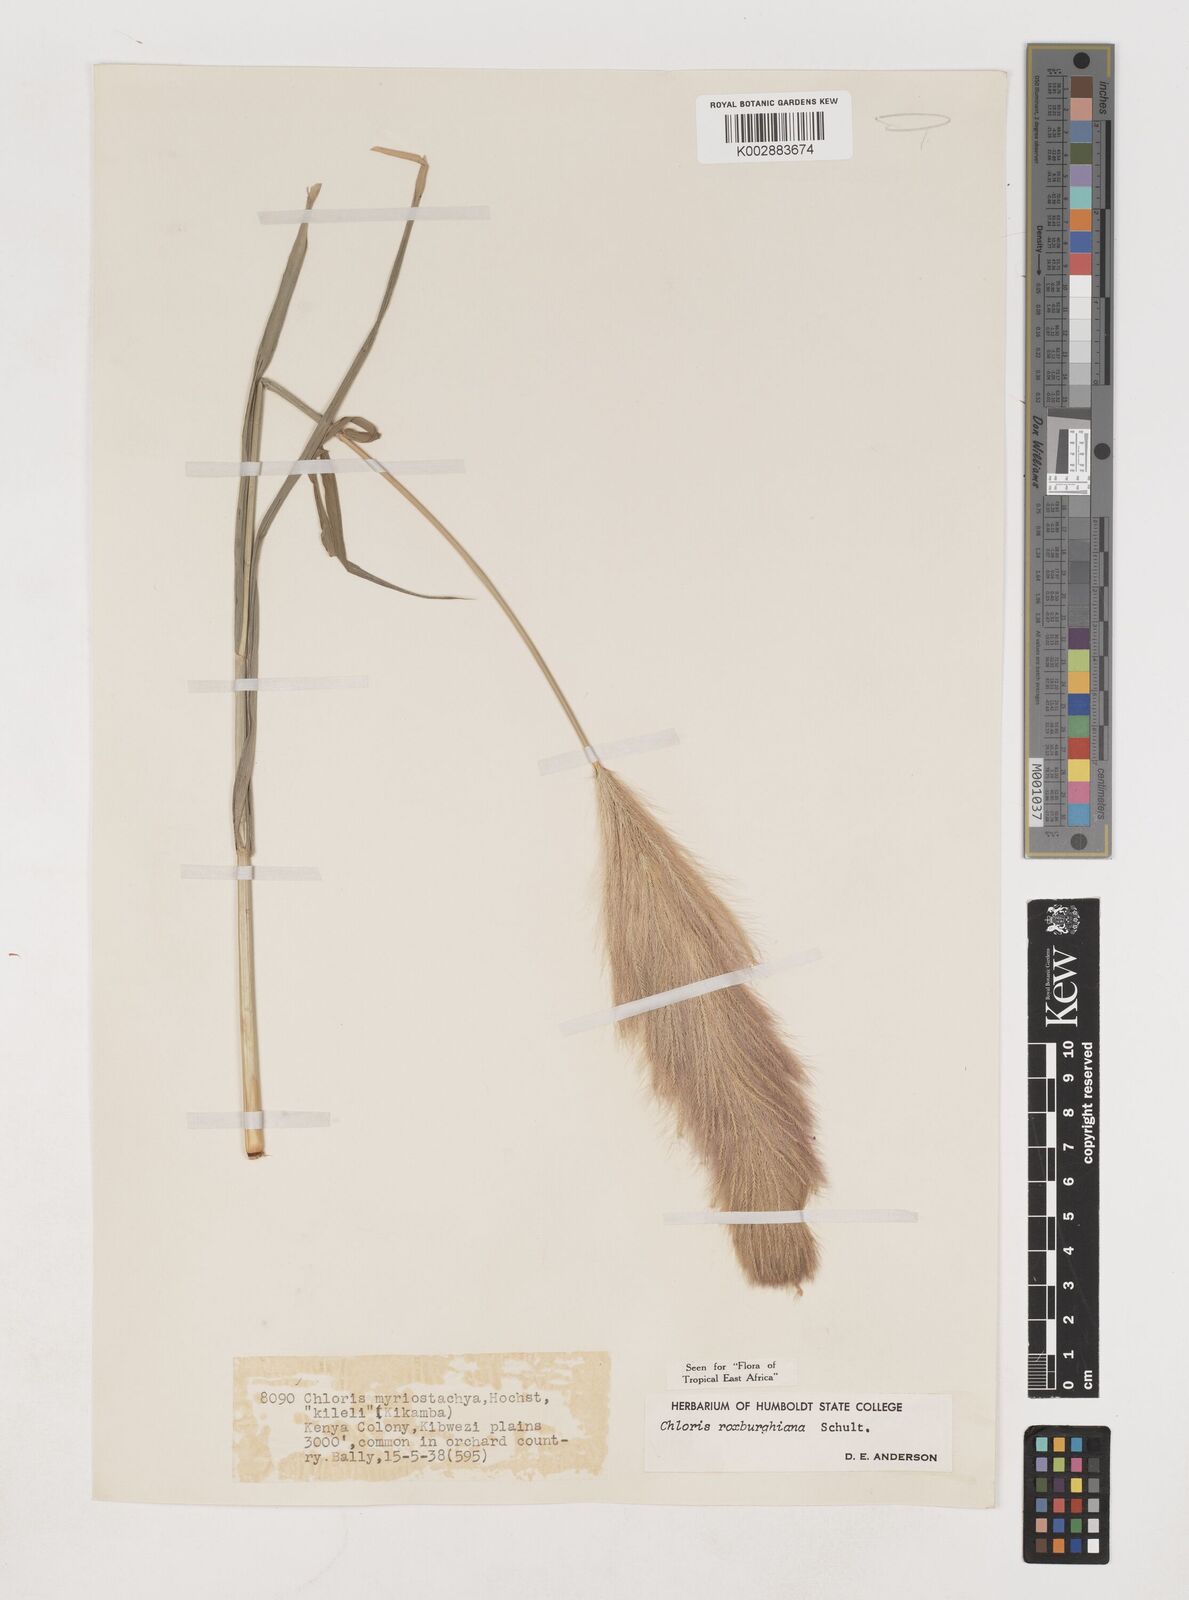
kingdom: Plantae
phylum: Tracheophyta
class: Liliopsida
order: Poales
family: Poaceae
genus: Tetrapogon
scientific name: Tetrapogon roxburghiana
